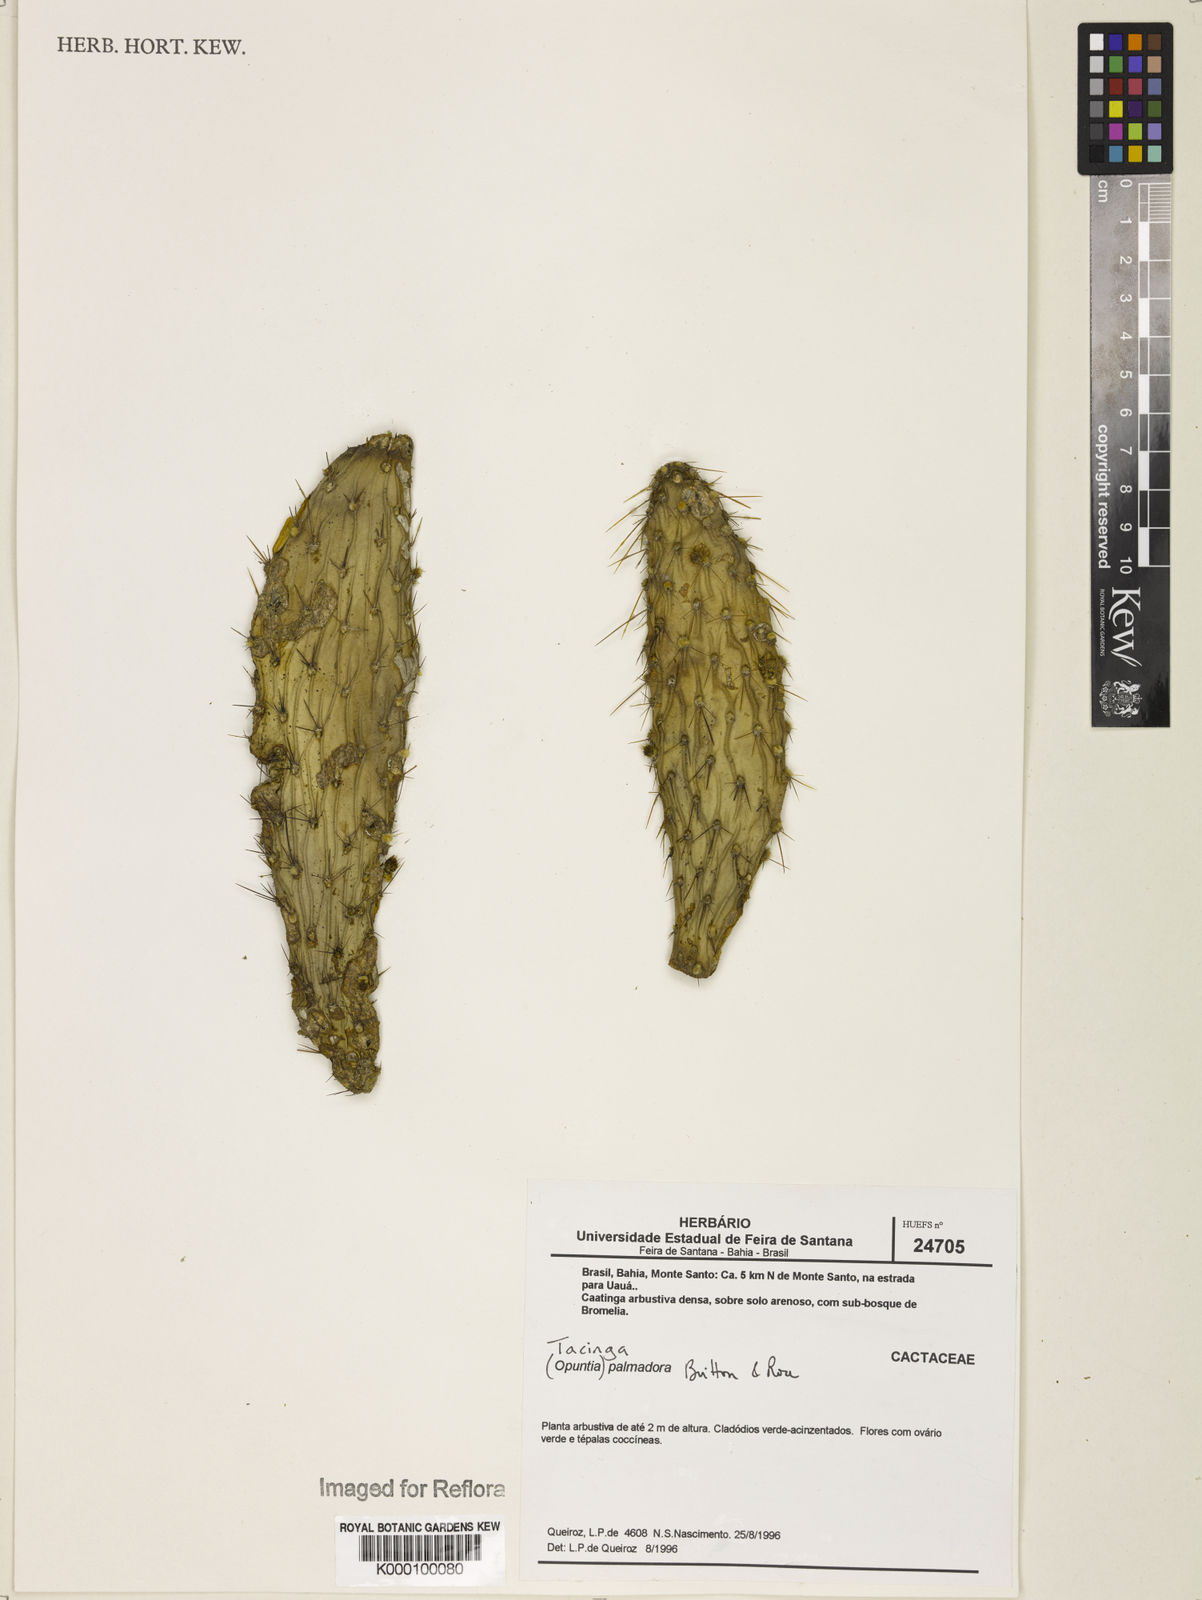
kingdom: Plantae
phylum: Tracheophyta
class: Magnoliopsida
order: Caryophyllales
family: Cactaceae
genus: Tacinga
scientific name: Tacinga palmadora
